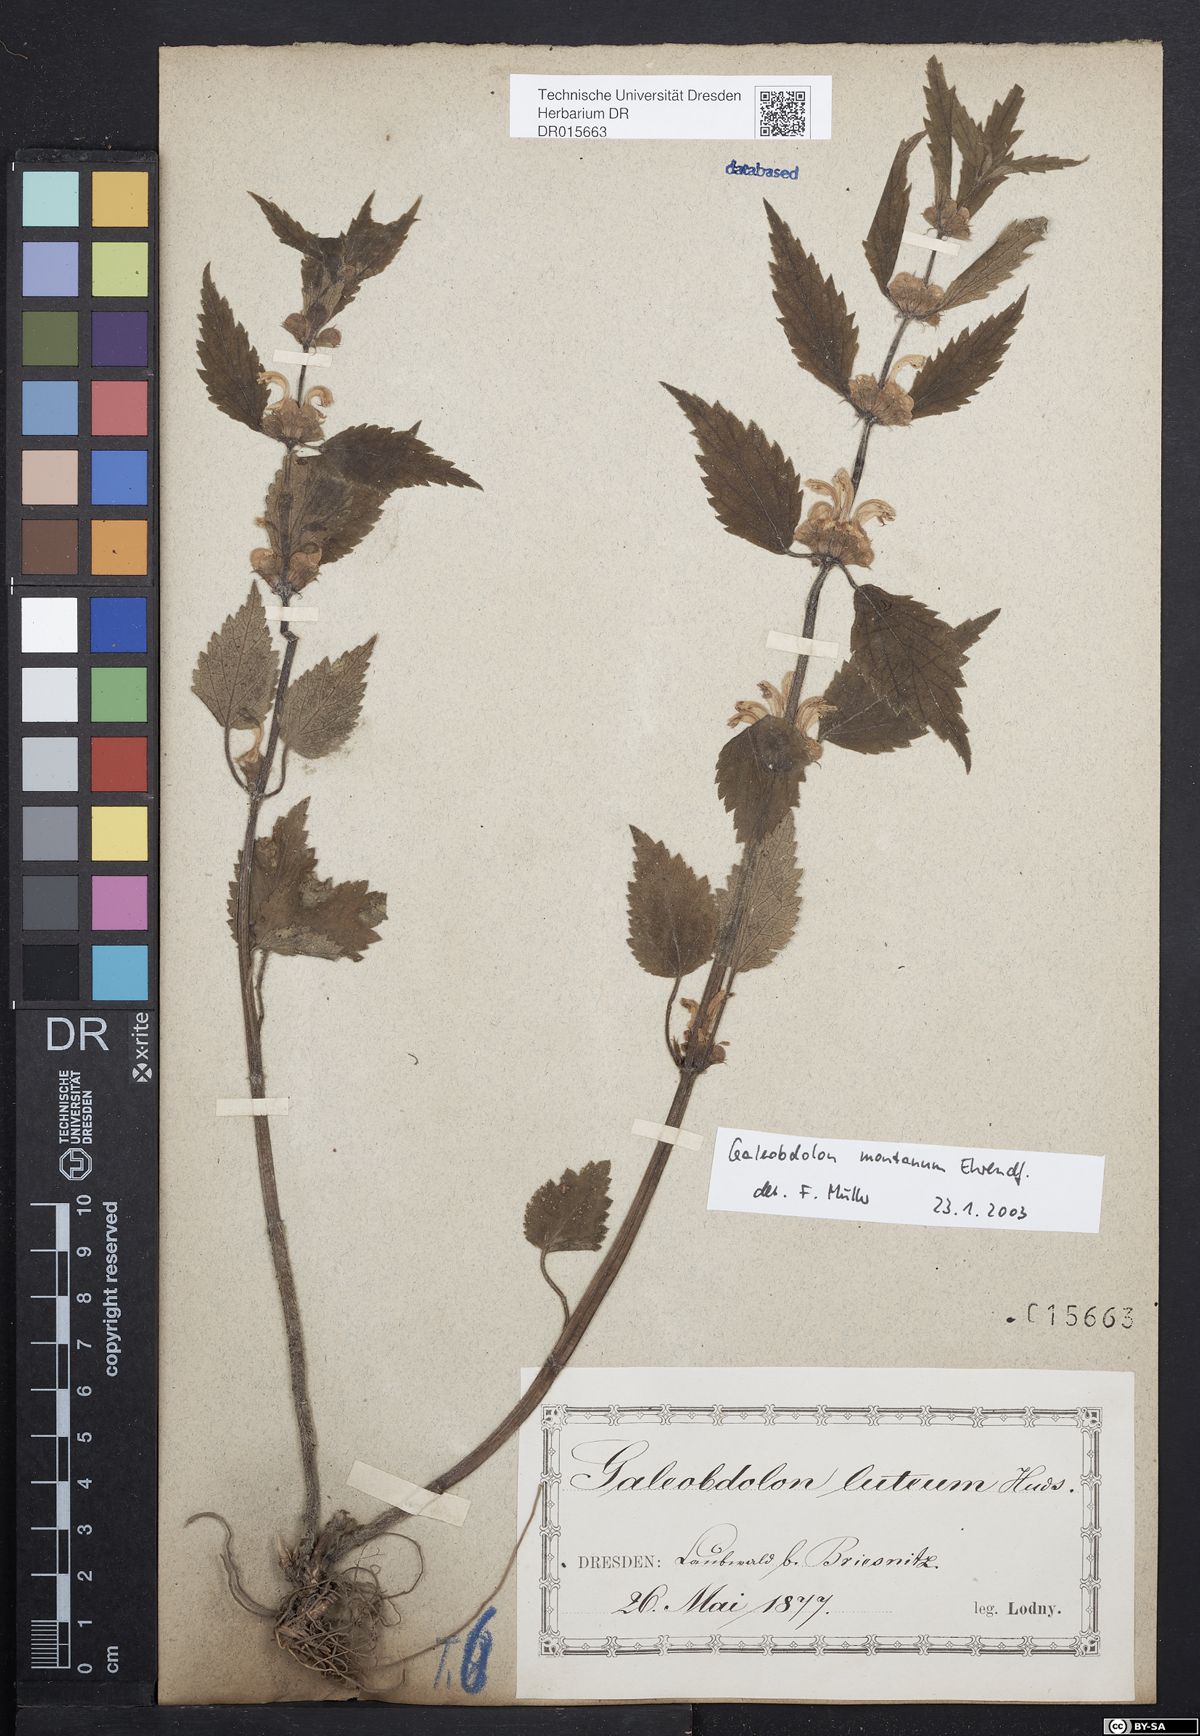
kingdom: Plantae
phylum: Tracheophyta
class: Magnoliopsida
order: Lamiales
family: Lamiaceae
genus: Lamium
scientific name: Lamium galeobdolon
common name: Yellow archangel
